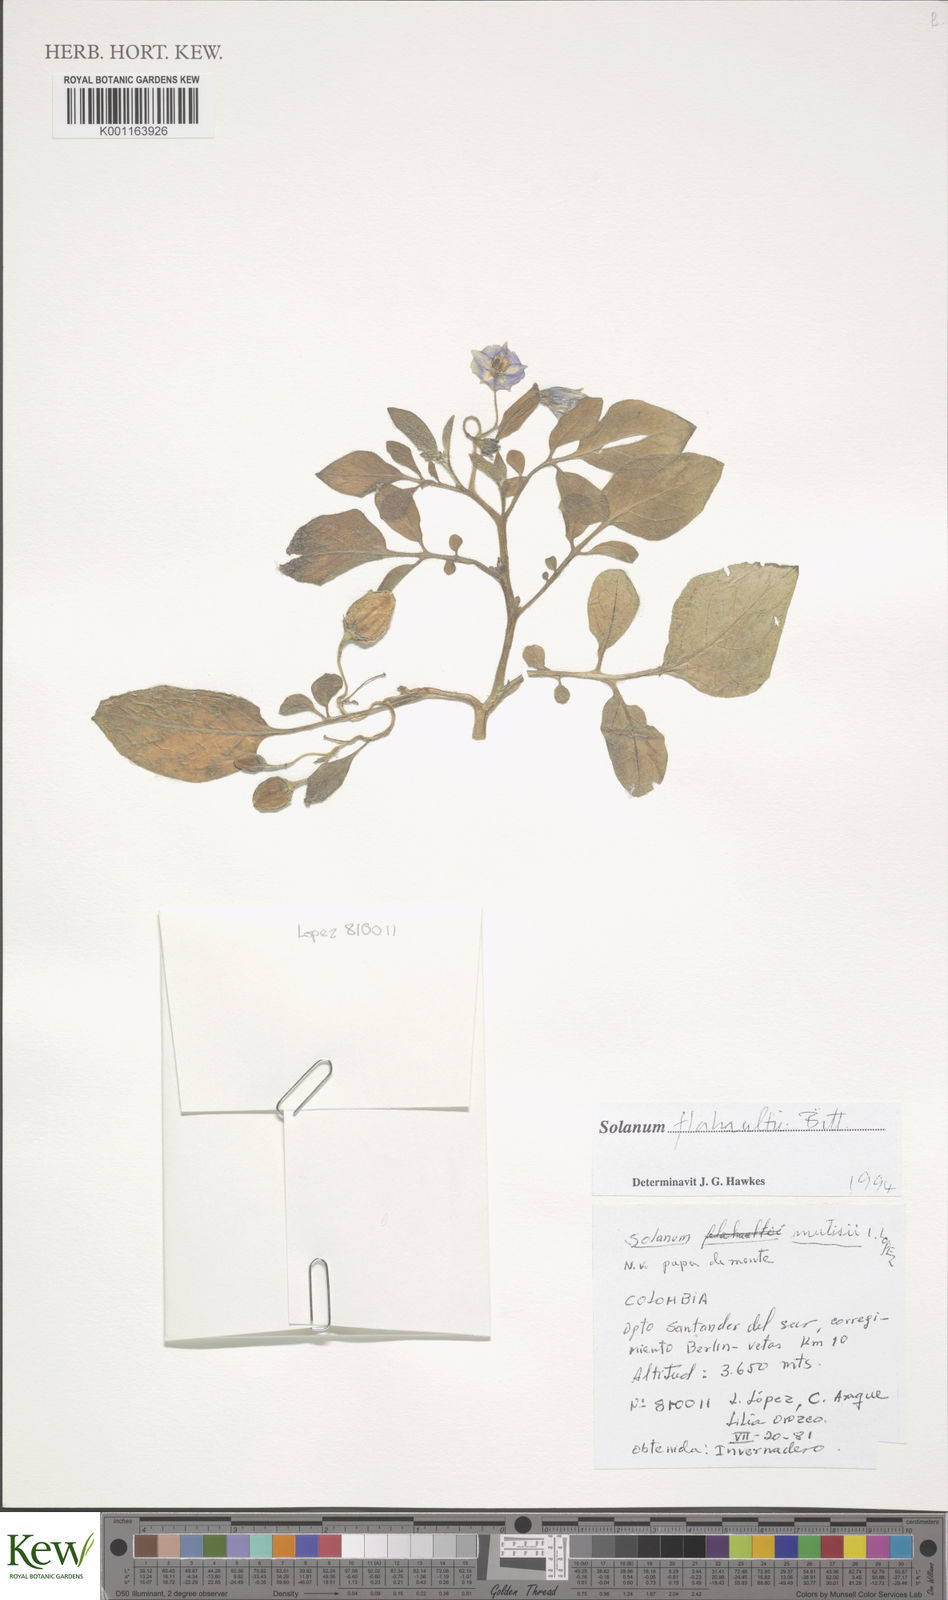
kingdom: Plantae
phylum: Tracheophyta
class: Magnoliopsida
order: Solanales
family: Solanaceae
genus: Solanum
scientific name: Solanum flahaultii
